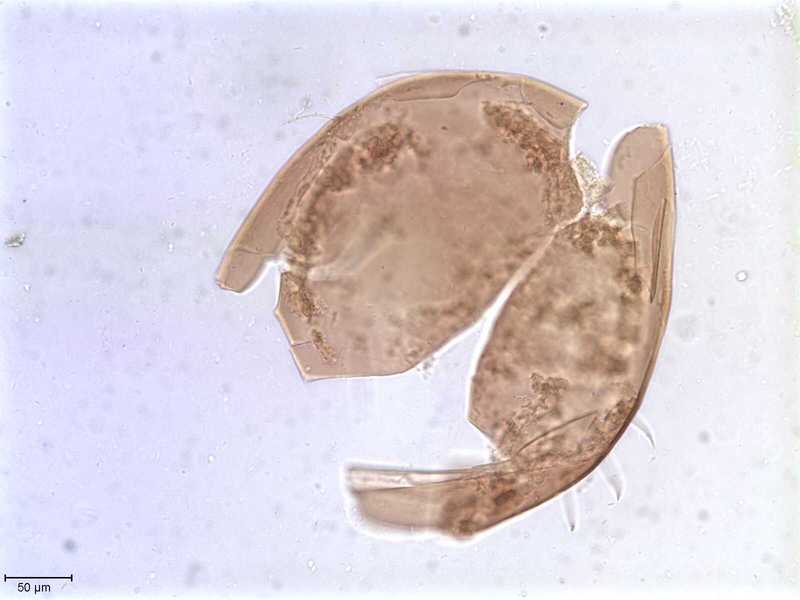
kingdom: Animalia
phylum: Arthropoda
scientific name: Arthropoda
